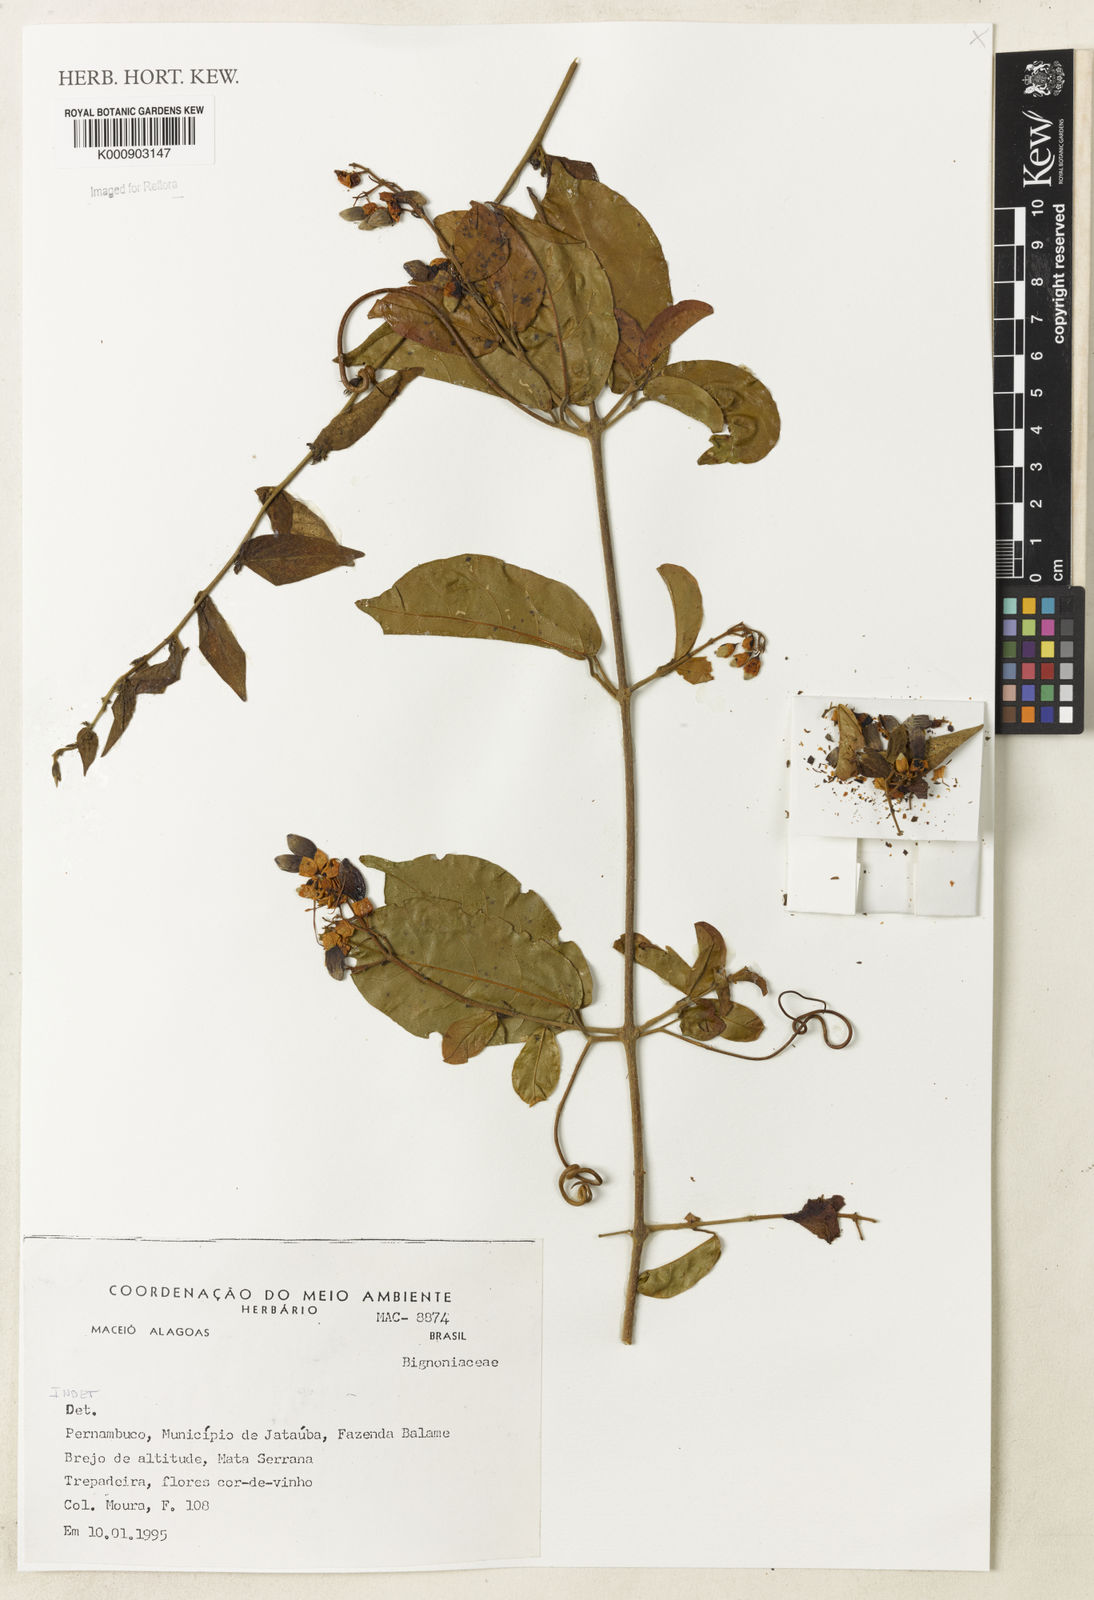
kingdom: Plantae
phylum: Tracheophyta
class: Magnoliopsida
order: Lamiales
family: Bignoniaceae
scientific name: Bignoniaceae
